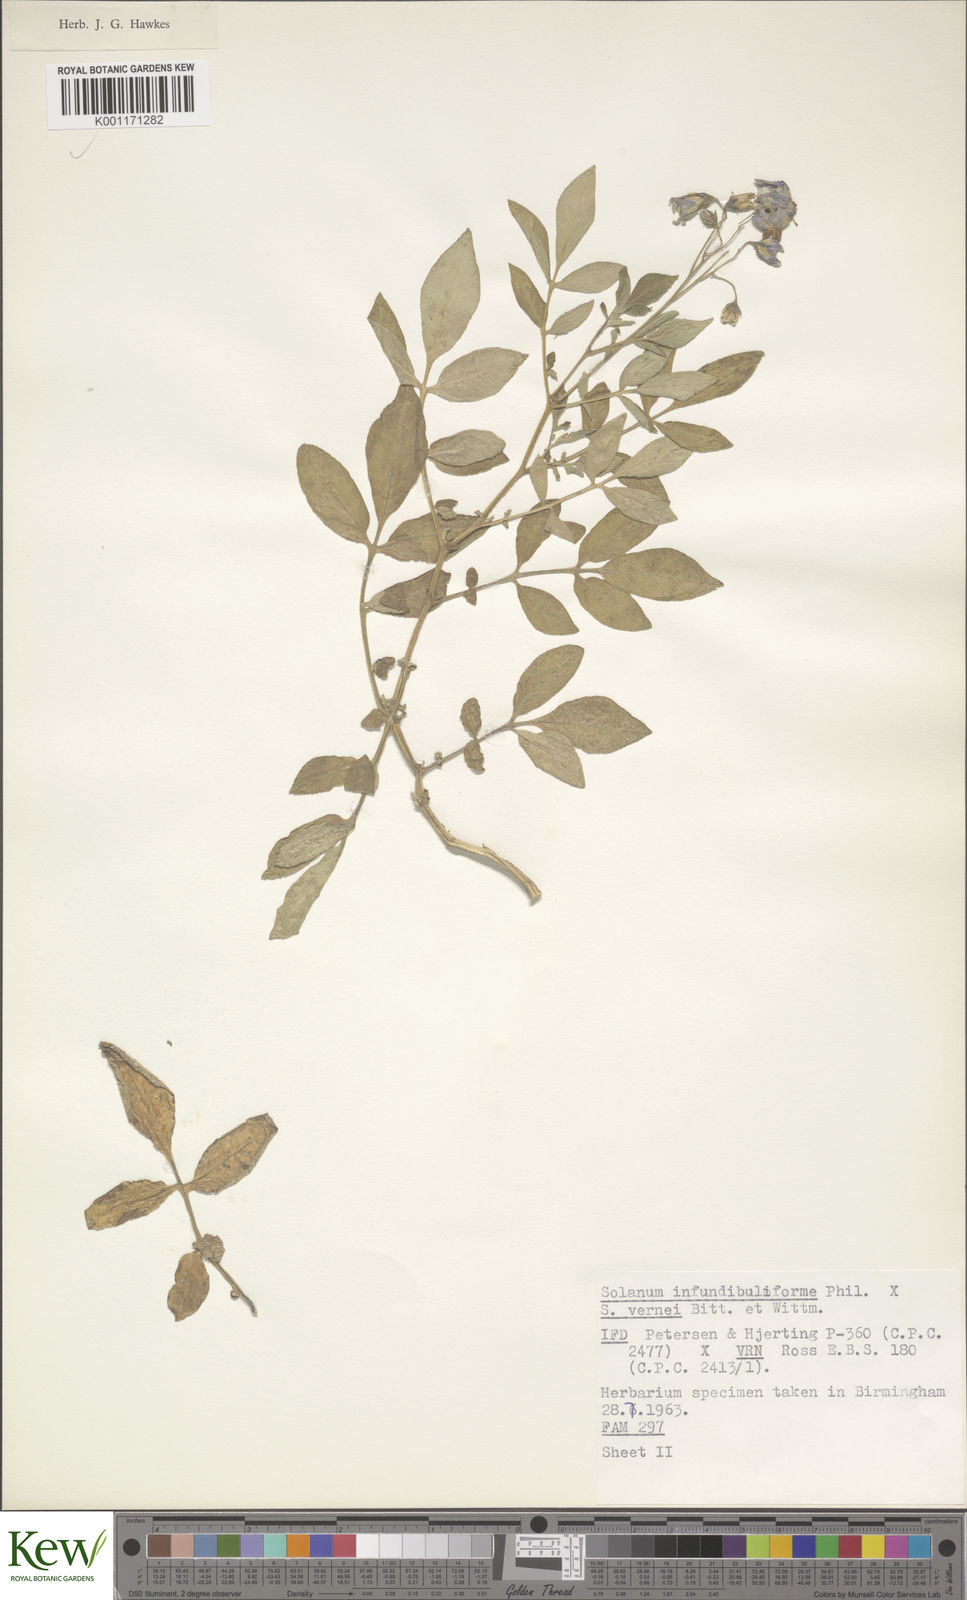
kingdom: Plantae
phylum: Tracheophyta
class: Magnoliopsida
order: Solanales
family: Solanaceae
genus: Solanum
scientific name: Solanum infundibuliforme
